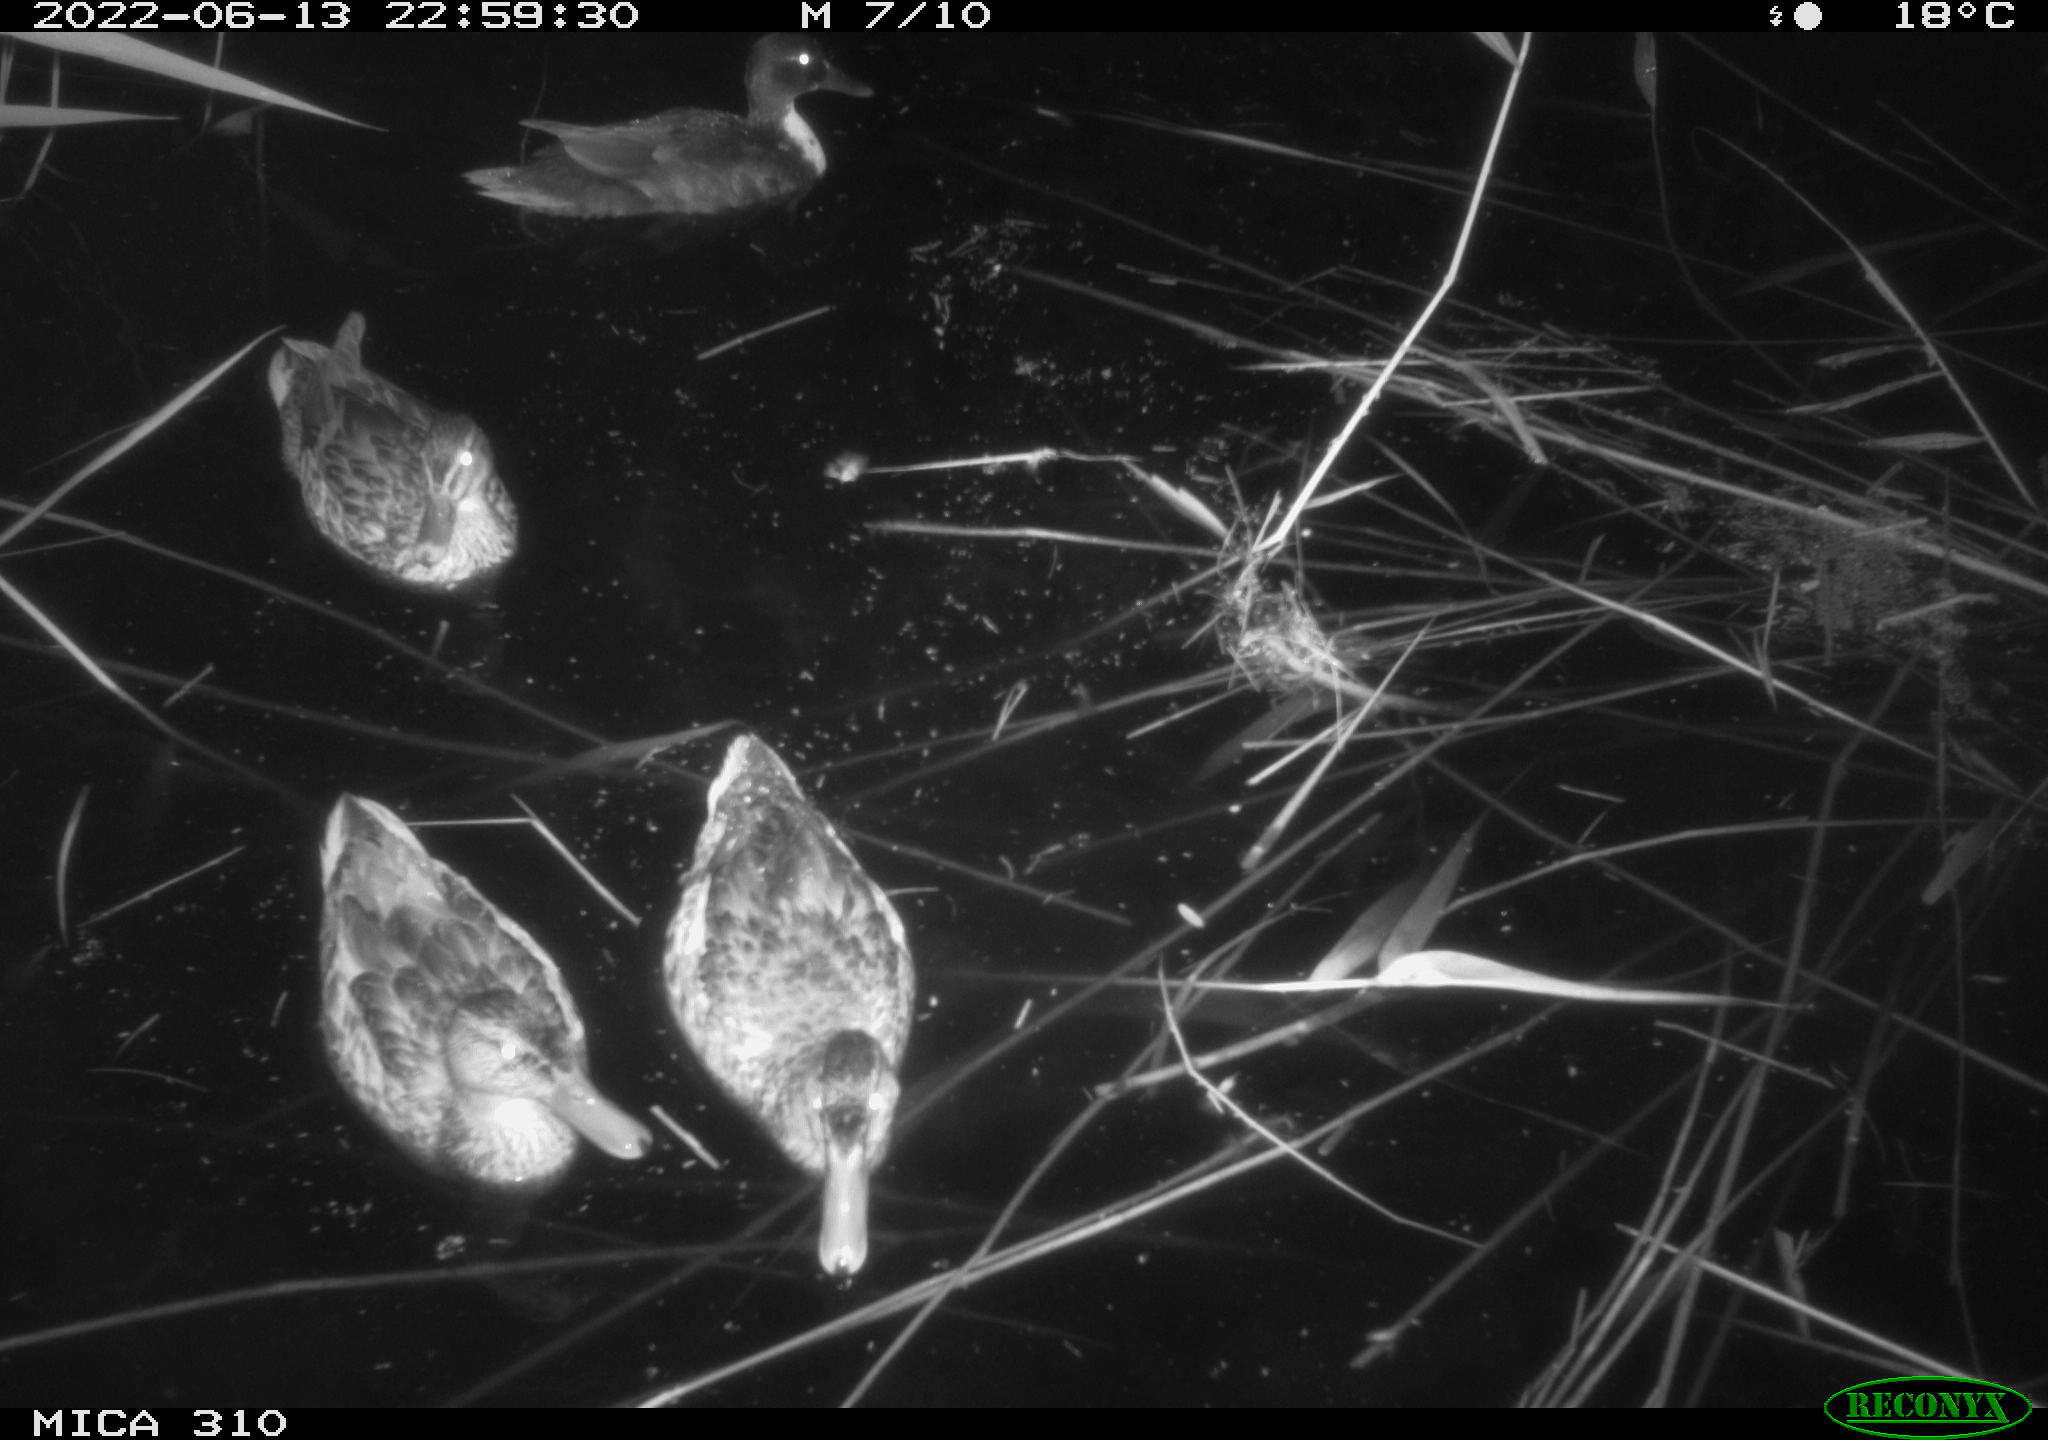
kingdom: Animalia
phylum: Chordata
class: Aves
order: Anseriformes
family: Anatidae
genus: Mareca
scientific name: Mareca strepera
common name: Gadwall
